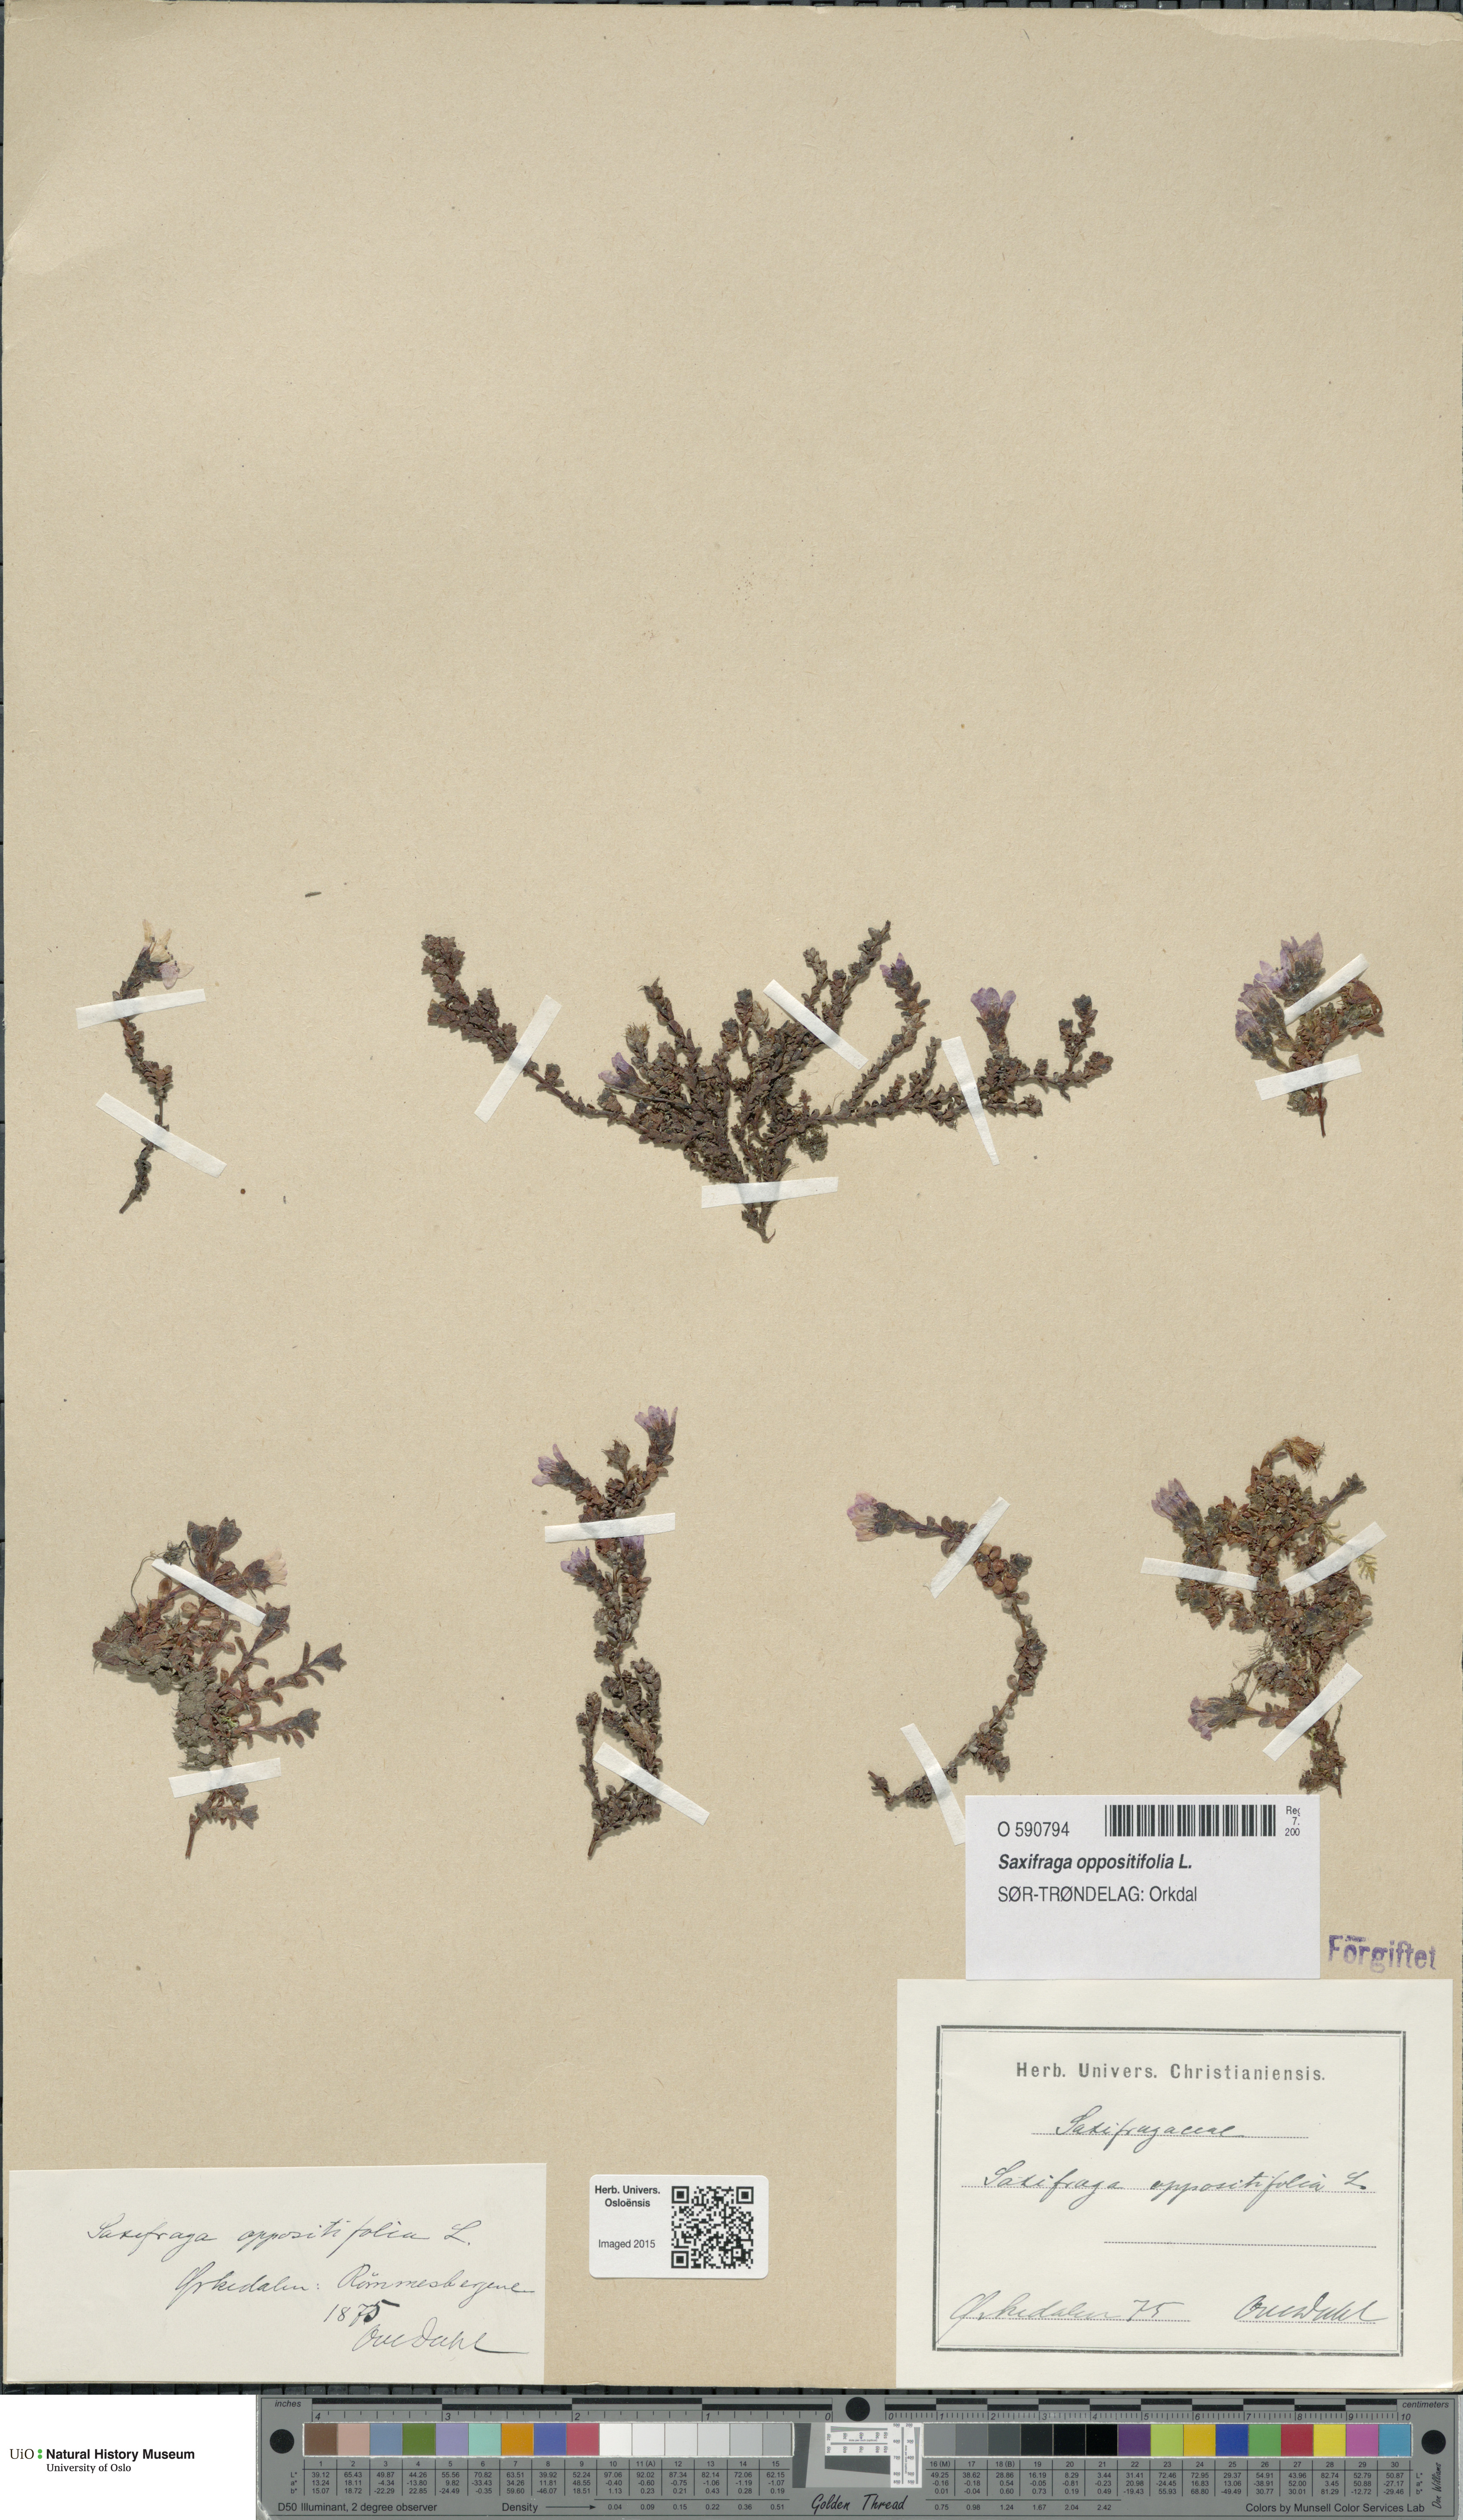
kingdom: Plantae
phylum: Tracheophyta
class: Magnoliopsida
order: Saxifragales
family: Saxifragaceae
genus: Saxifraga
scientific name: Saxifraga oppositifolia
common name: Purple saxifrage
